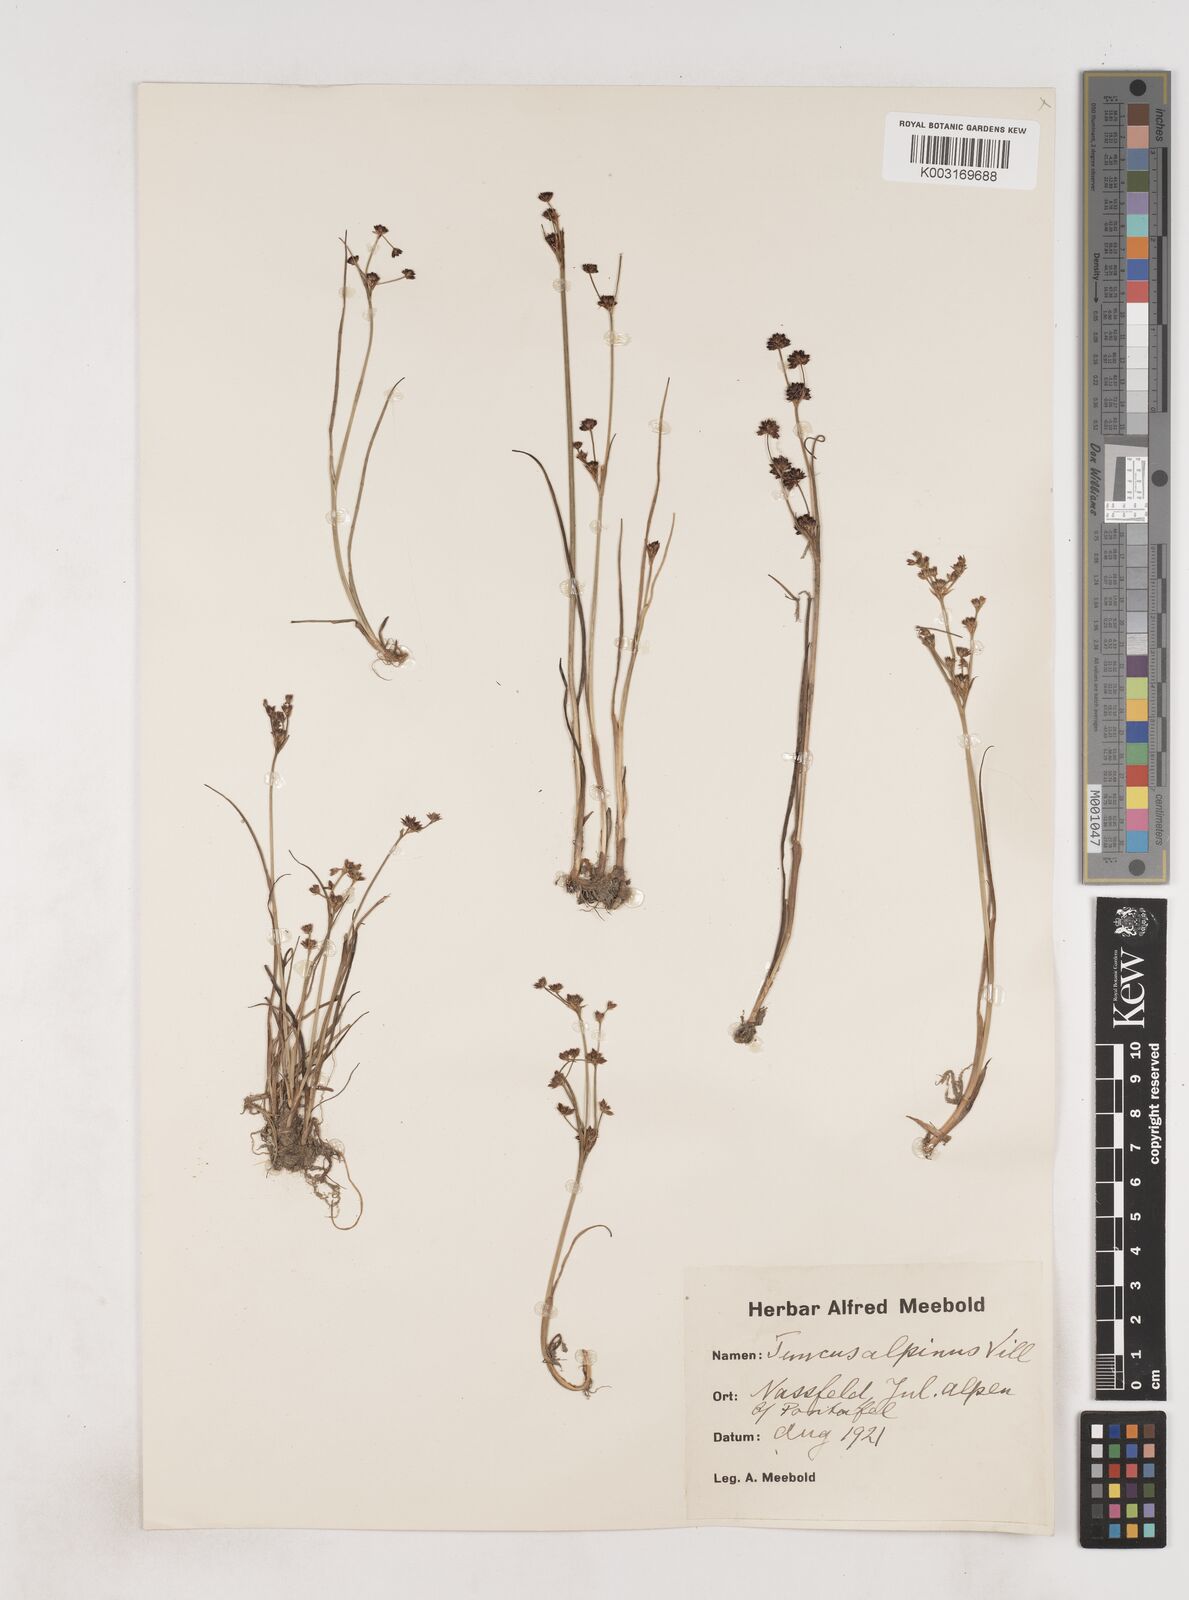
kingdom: Plantae
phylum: Tracheophyta
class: Liliopsida
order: Poales
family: Juncaceae
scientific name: Juncaceae
